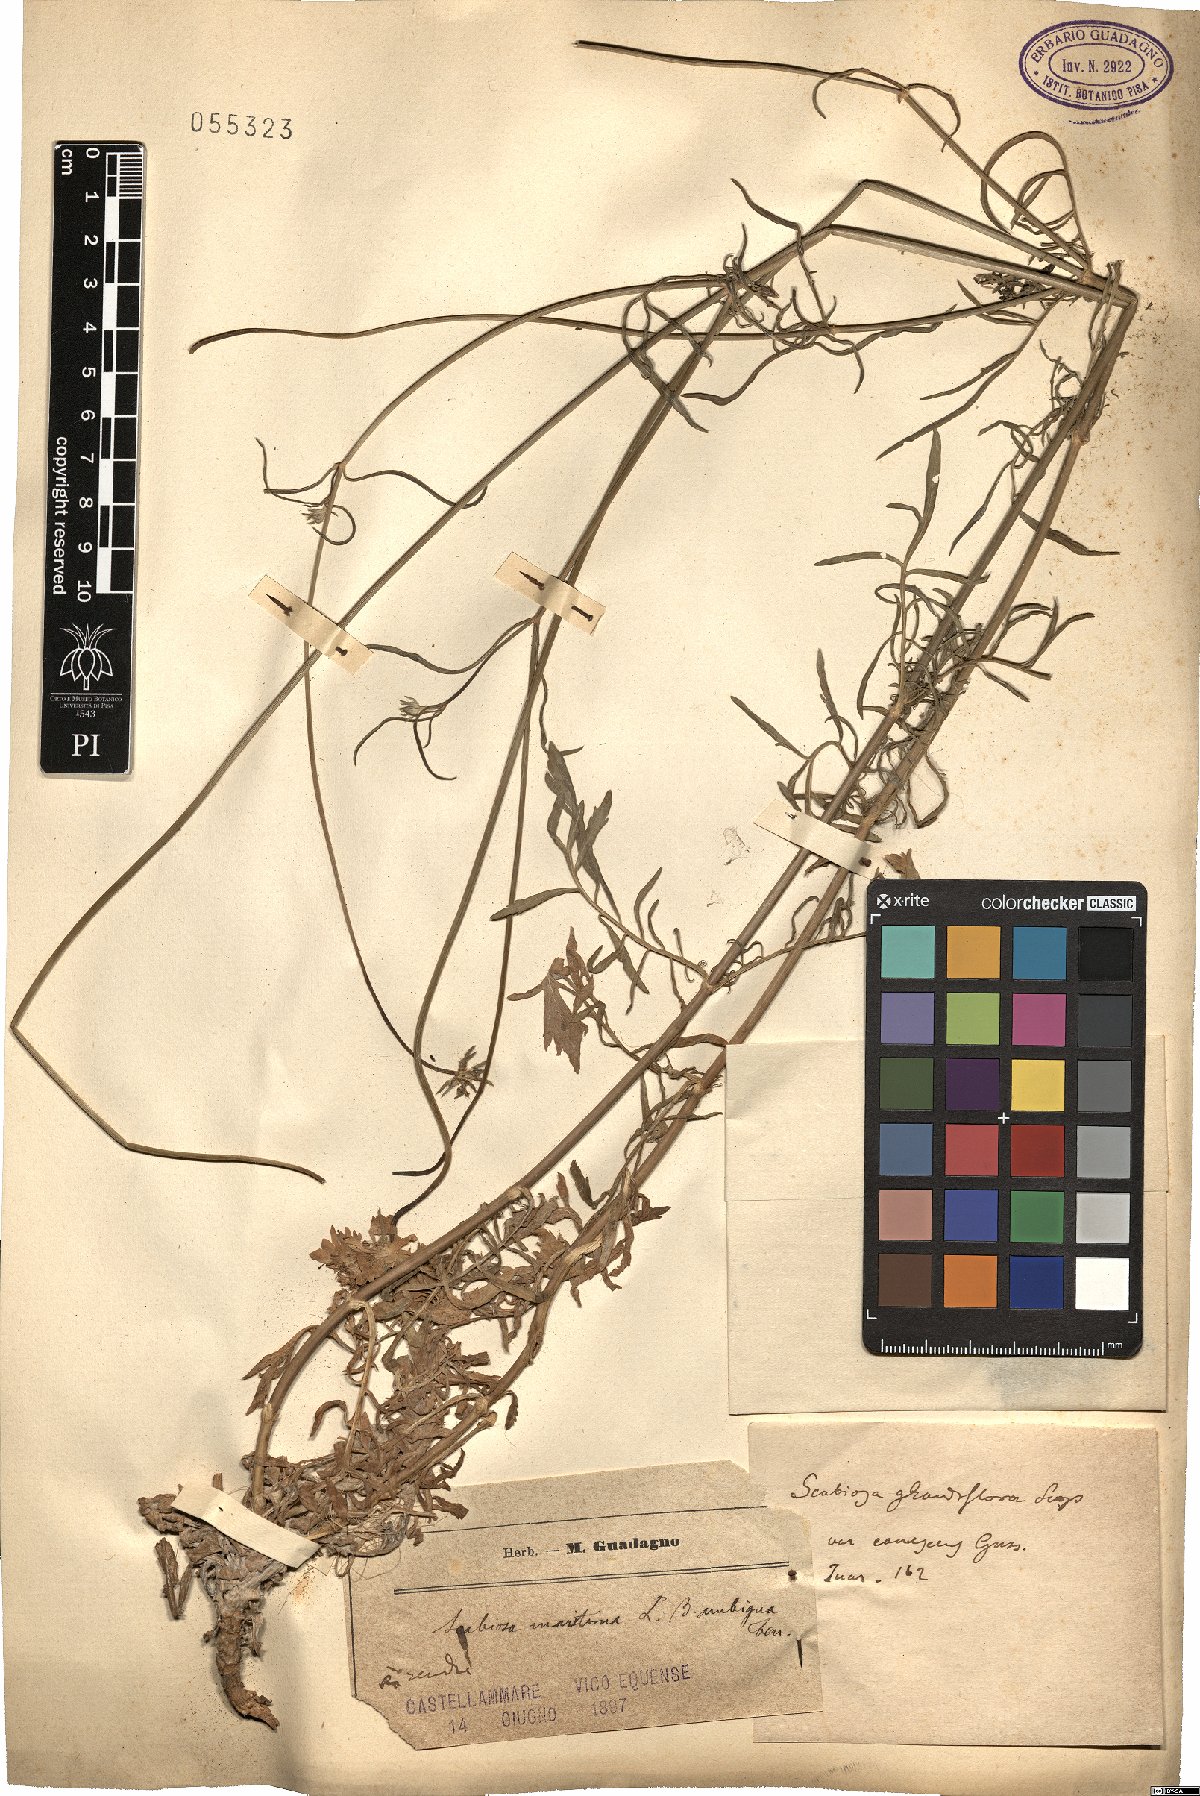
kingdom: Plantae
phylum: Tracheophyta
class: Magnoliopsida
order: Dipsacales
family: Caprifoliaceae
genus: Sixalix
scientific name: Sixalix maritima
